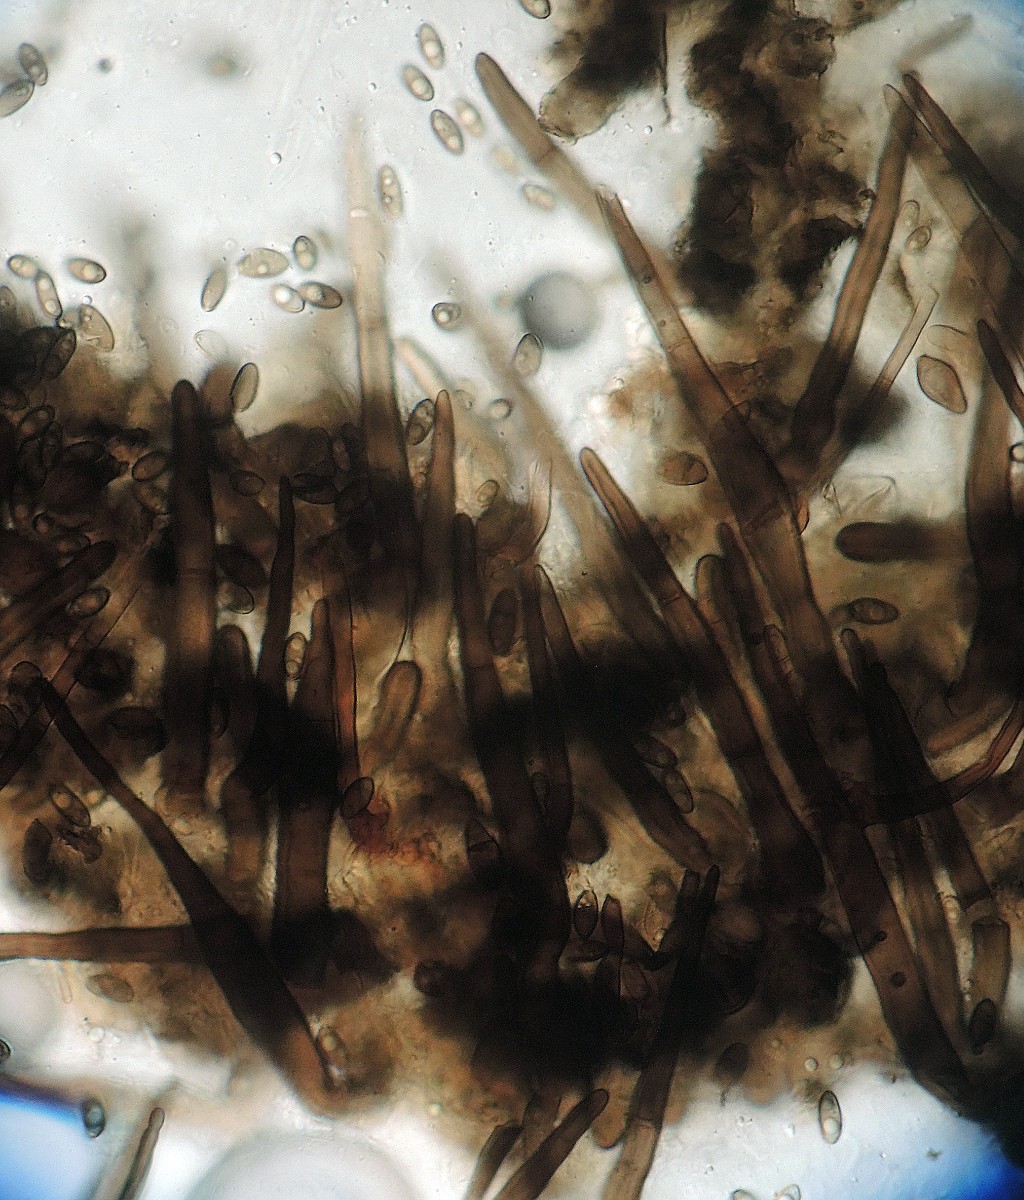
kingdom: Fungi
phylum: Ascomycota
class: Sordariomycetes
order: Sordariales
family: Helminthosphaeriaceae
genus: Helminthosphaeria
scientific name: Helminthosphaeria
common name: svampesnyltekerne
